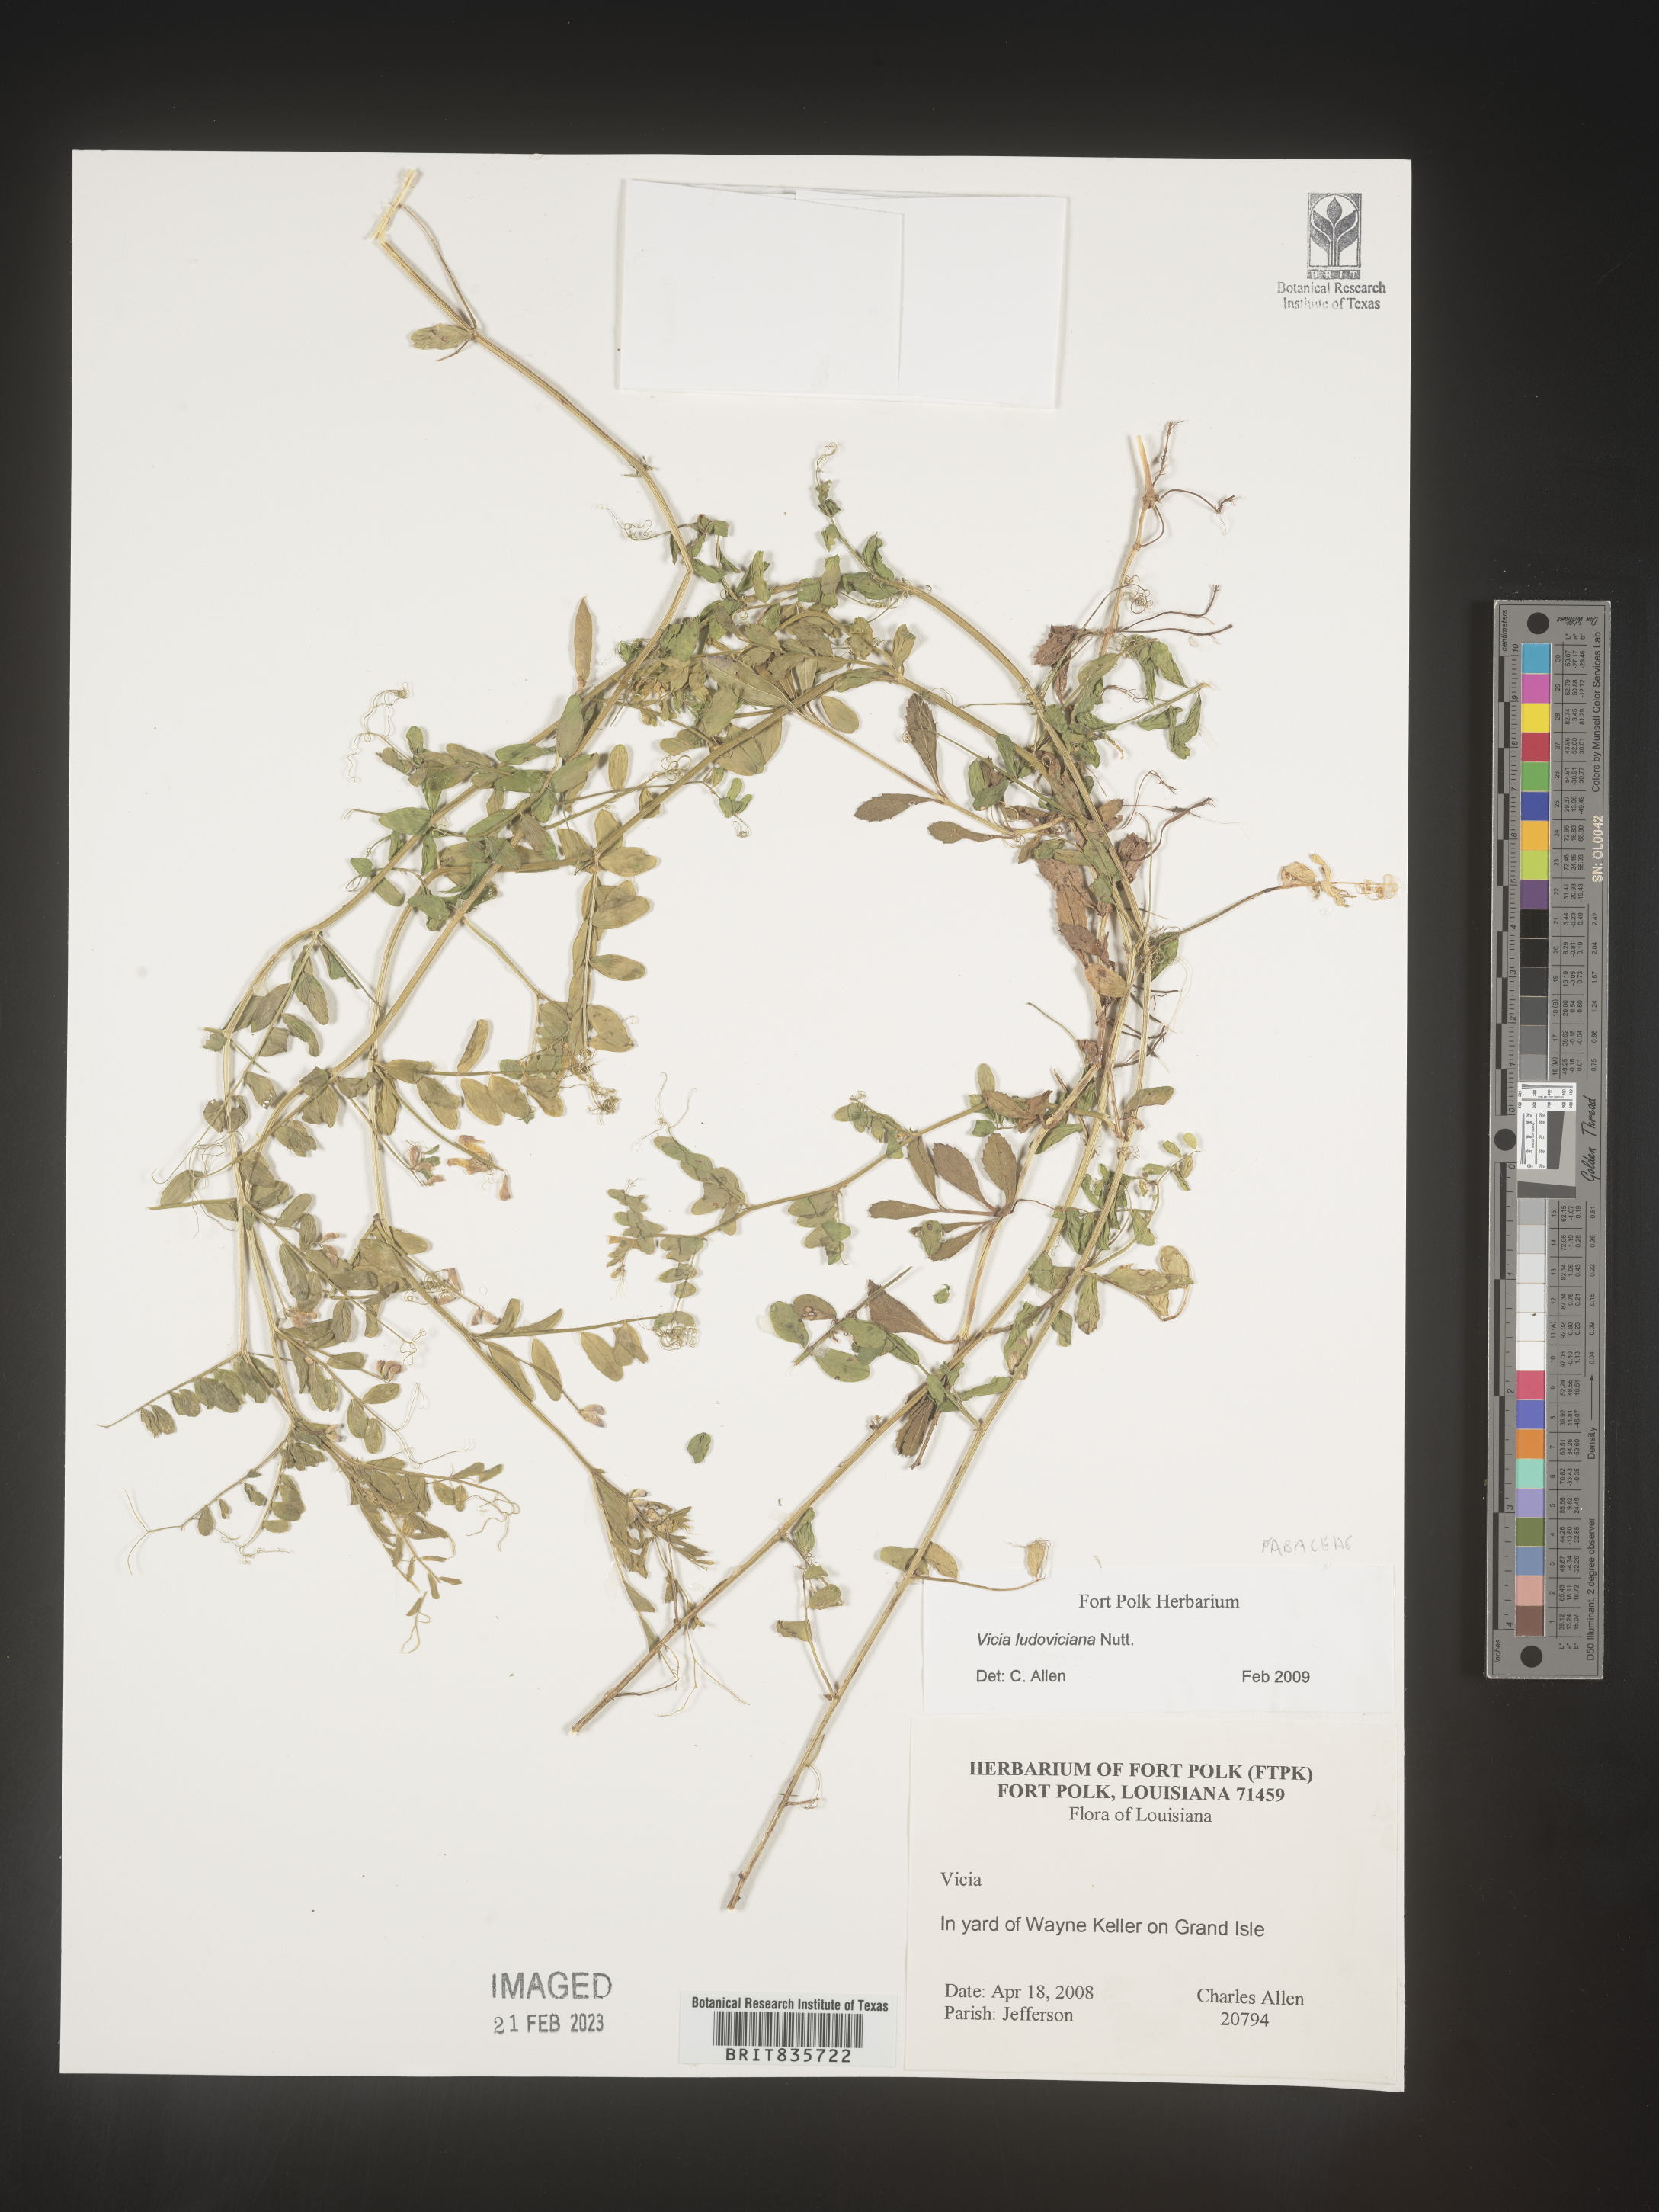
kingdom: Plantae
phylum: Tracheophyta
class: Magnoliopsida
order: Fabales
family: Fabaceae
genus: Vicia
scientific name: Vicia ludoviciana
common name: Louisiana vetch
